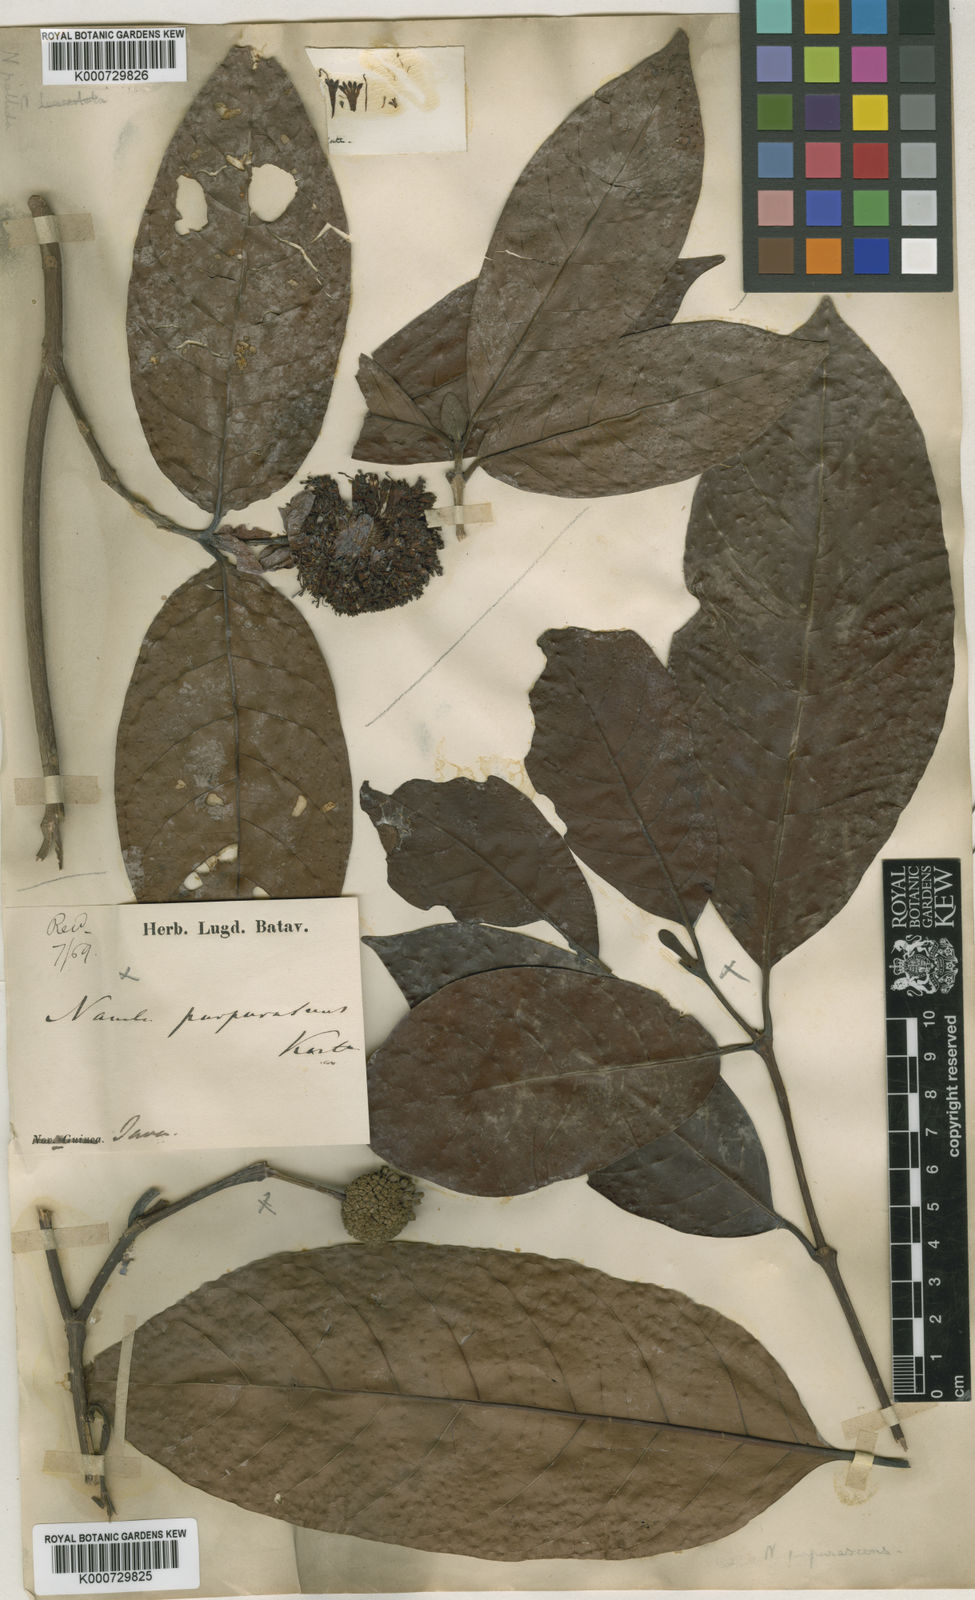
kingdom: Plantae
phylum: Tracheophyta
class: Magnoliopsida
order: Gentianales
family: Rubiaceae
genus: Neonauclea
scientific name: Neonauclea
